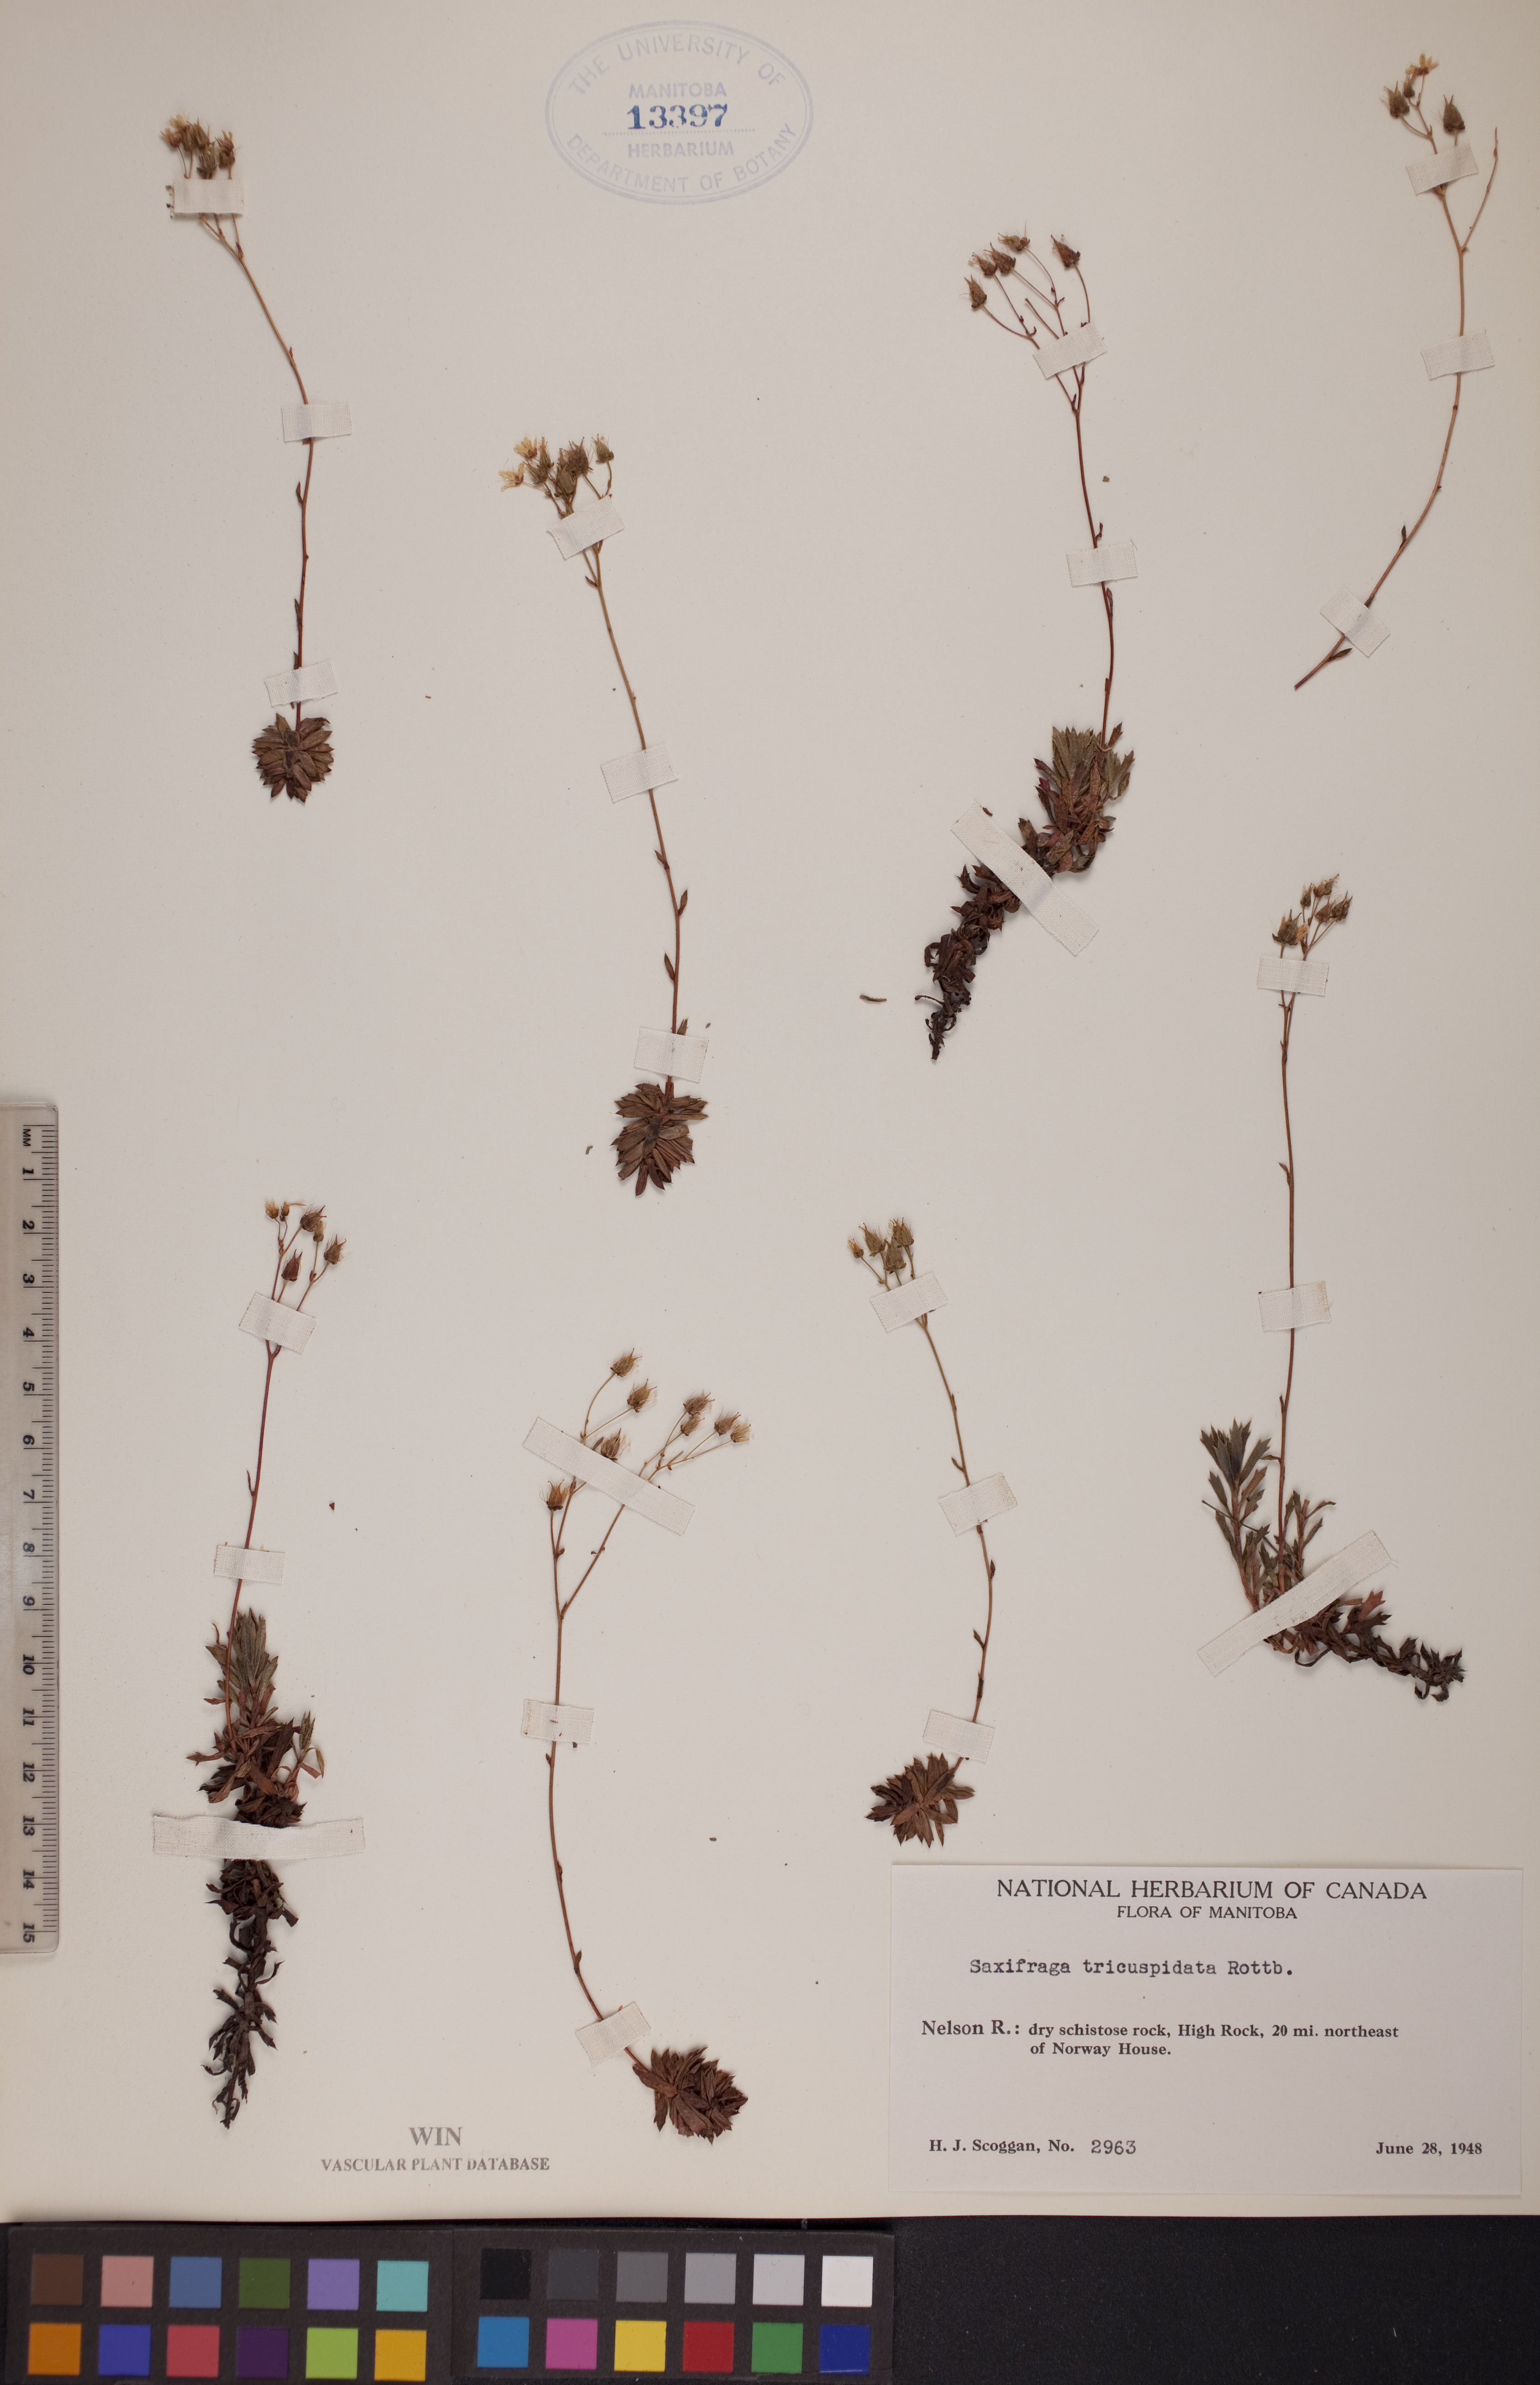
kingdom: Plantae
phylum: Tracheophyta
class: Magnoliopsida
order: Saxifragales
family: Saxifragaceae
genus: Saxifraga
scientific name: Saxifraga tricuspidata
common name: Prickly saxifrage
